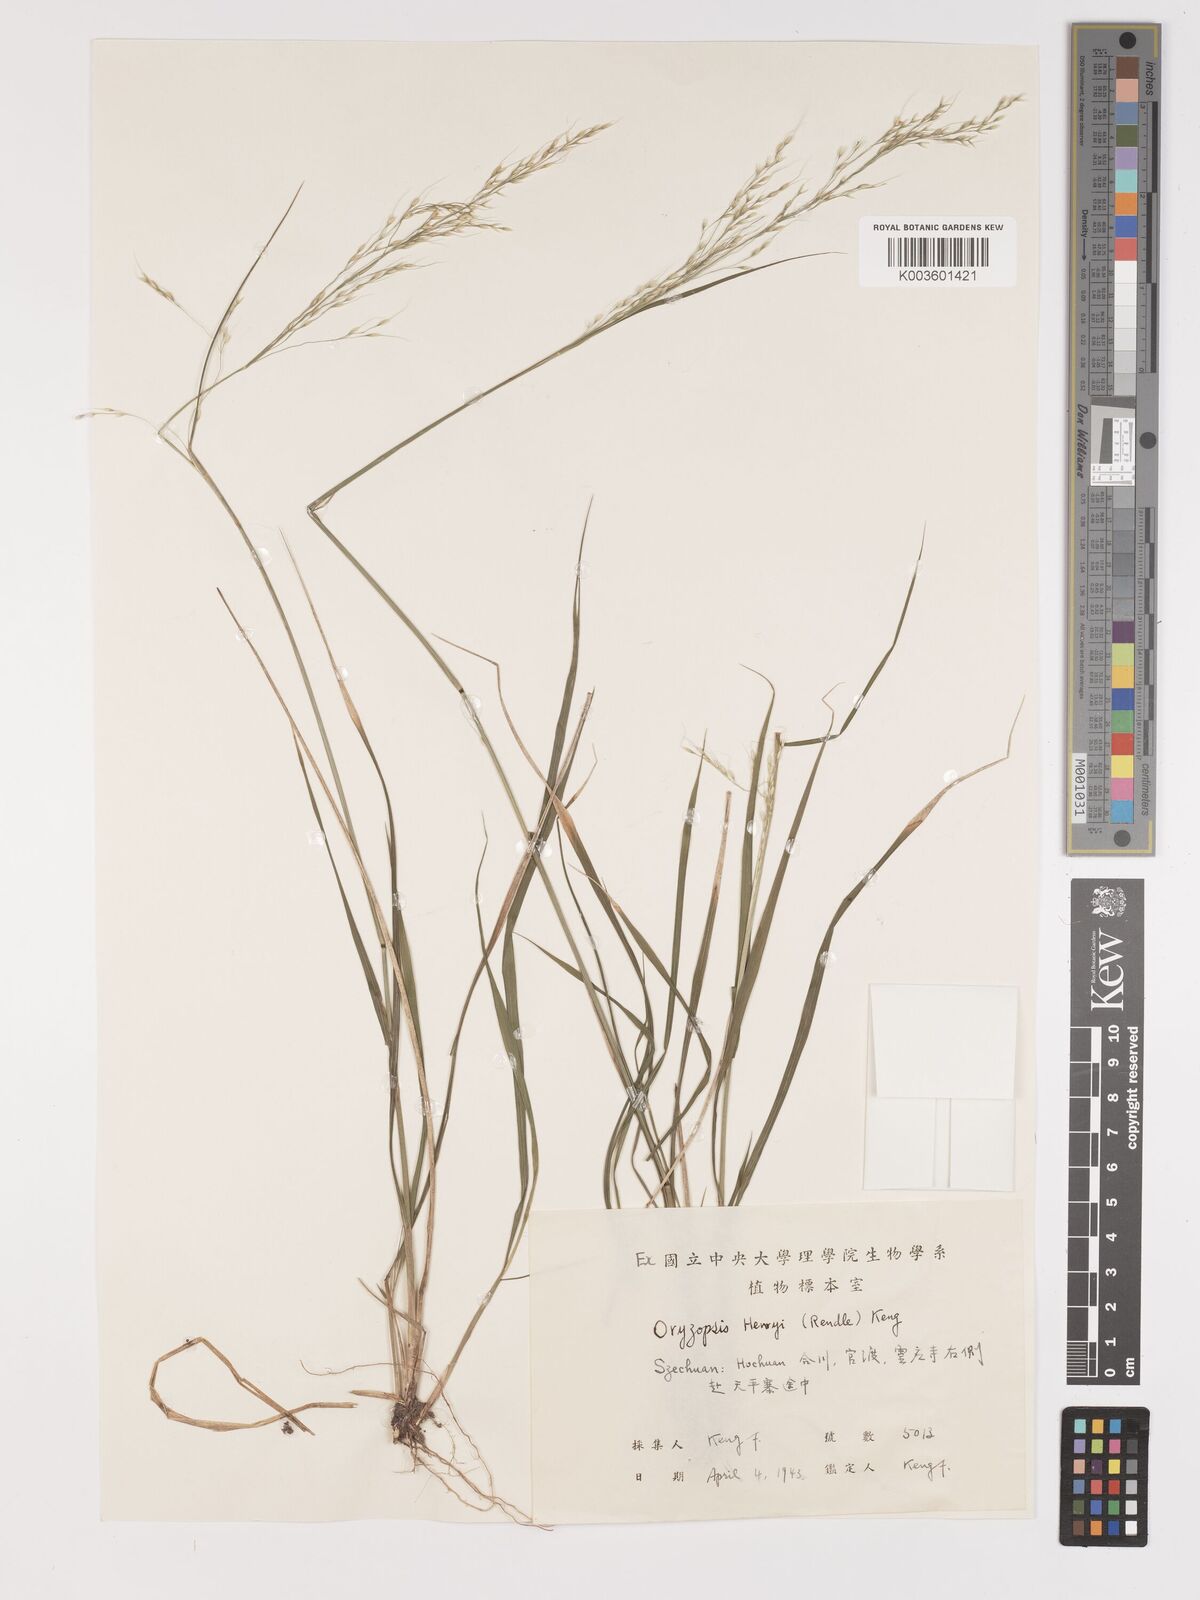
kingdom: Plantae
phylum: Tracheophyta
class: Liliopsida
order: Poales
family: Poaceae
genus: Stipa
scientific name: Stipa henryi
